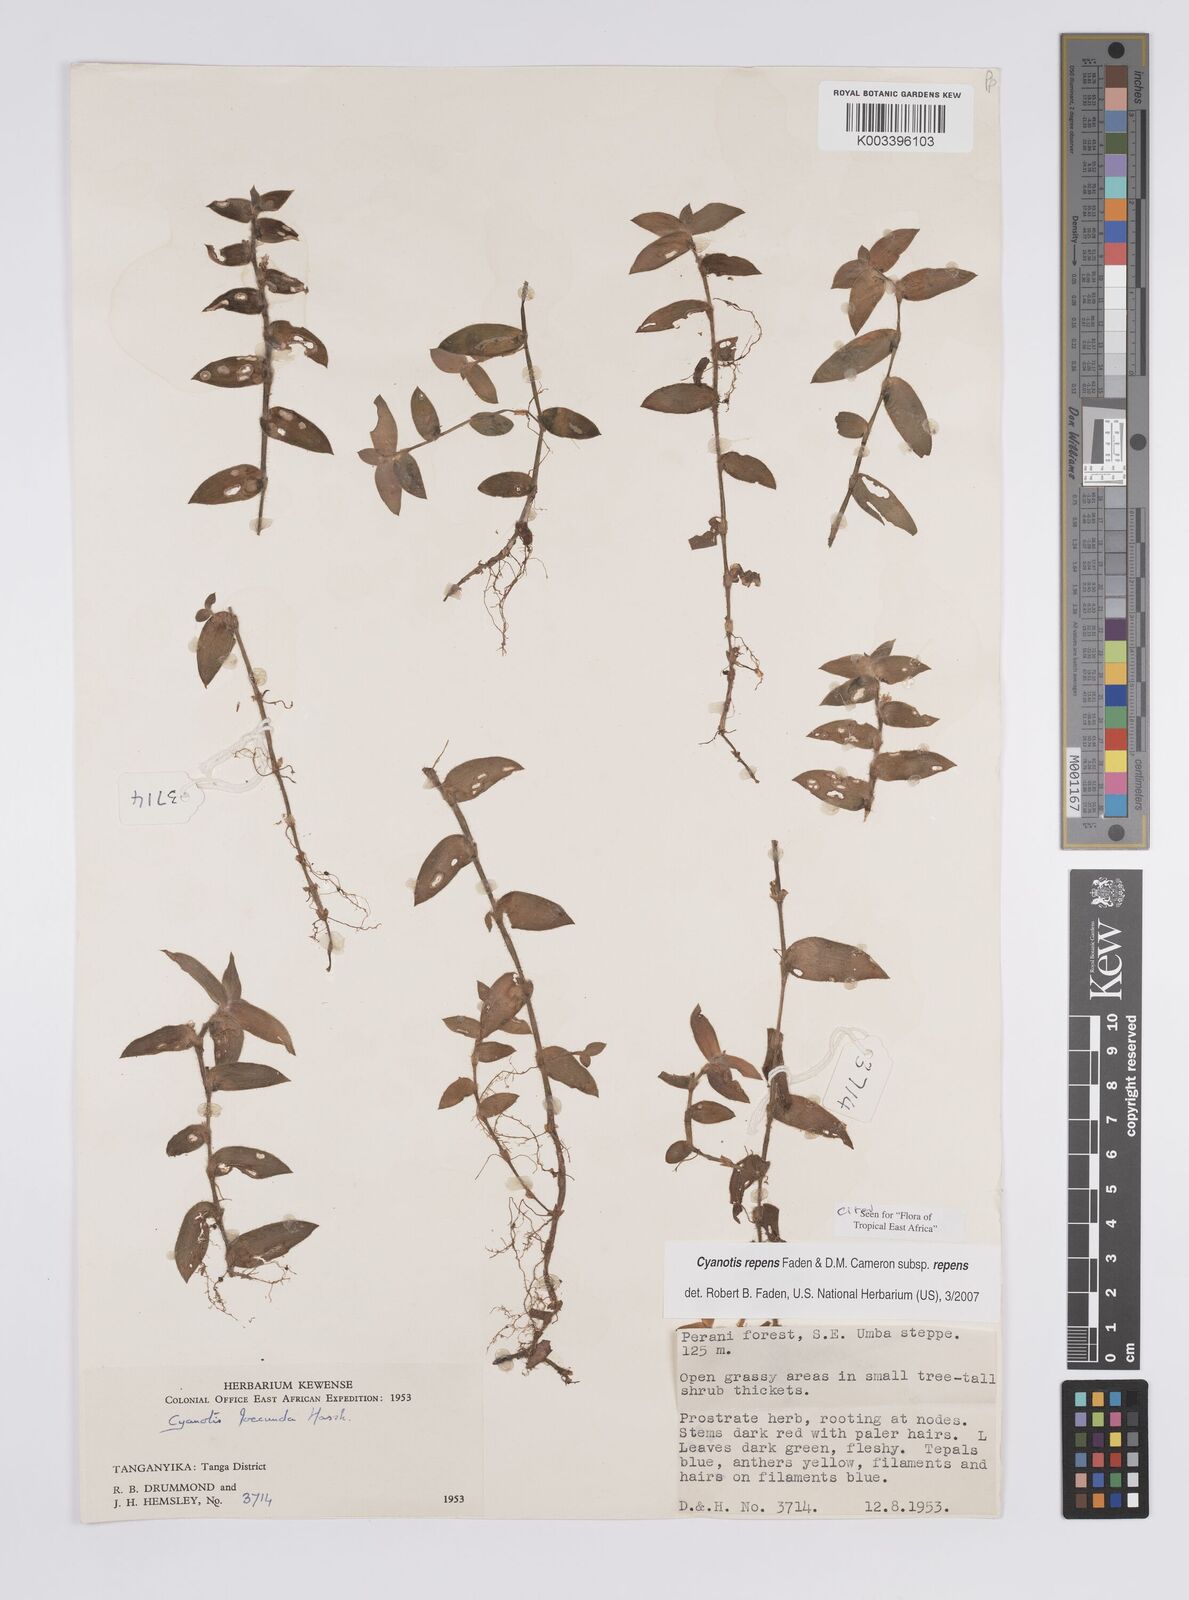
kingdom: Plantae
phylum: Tracheophyta
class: Liliopsida
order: Commelinales
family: Commelinaceae
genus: Cyanotis
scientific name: Cyanotis repens
